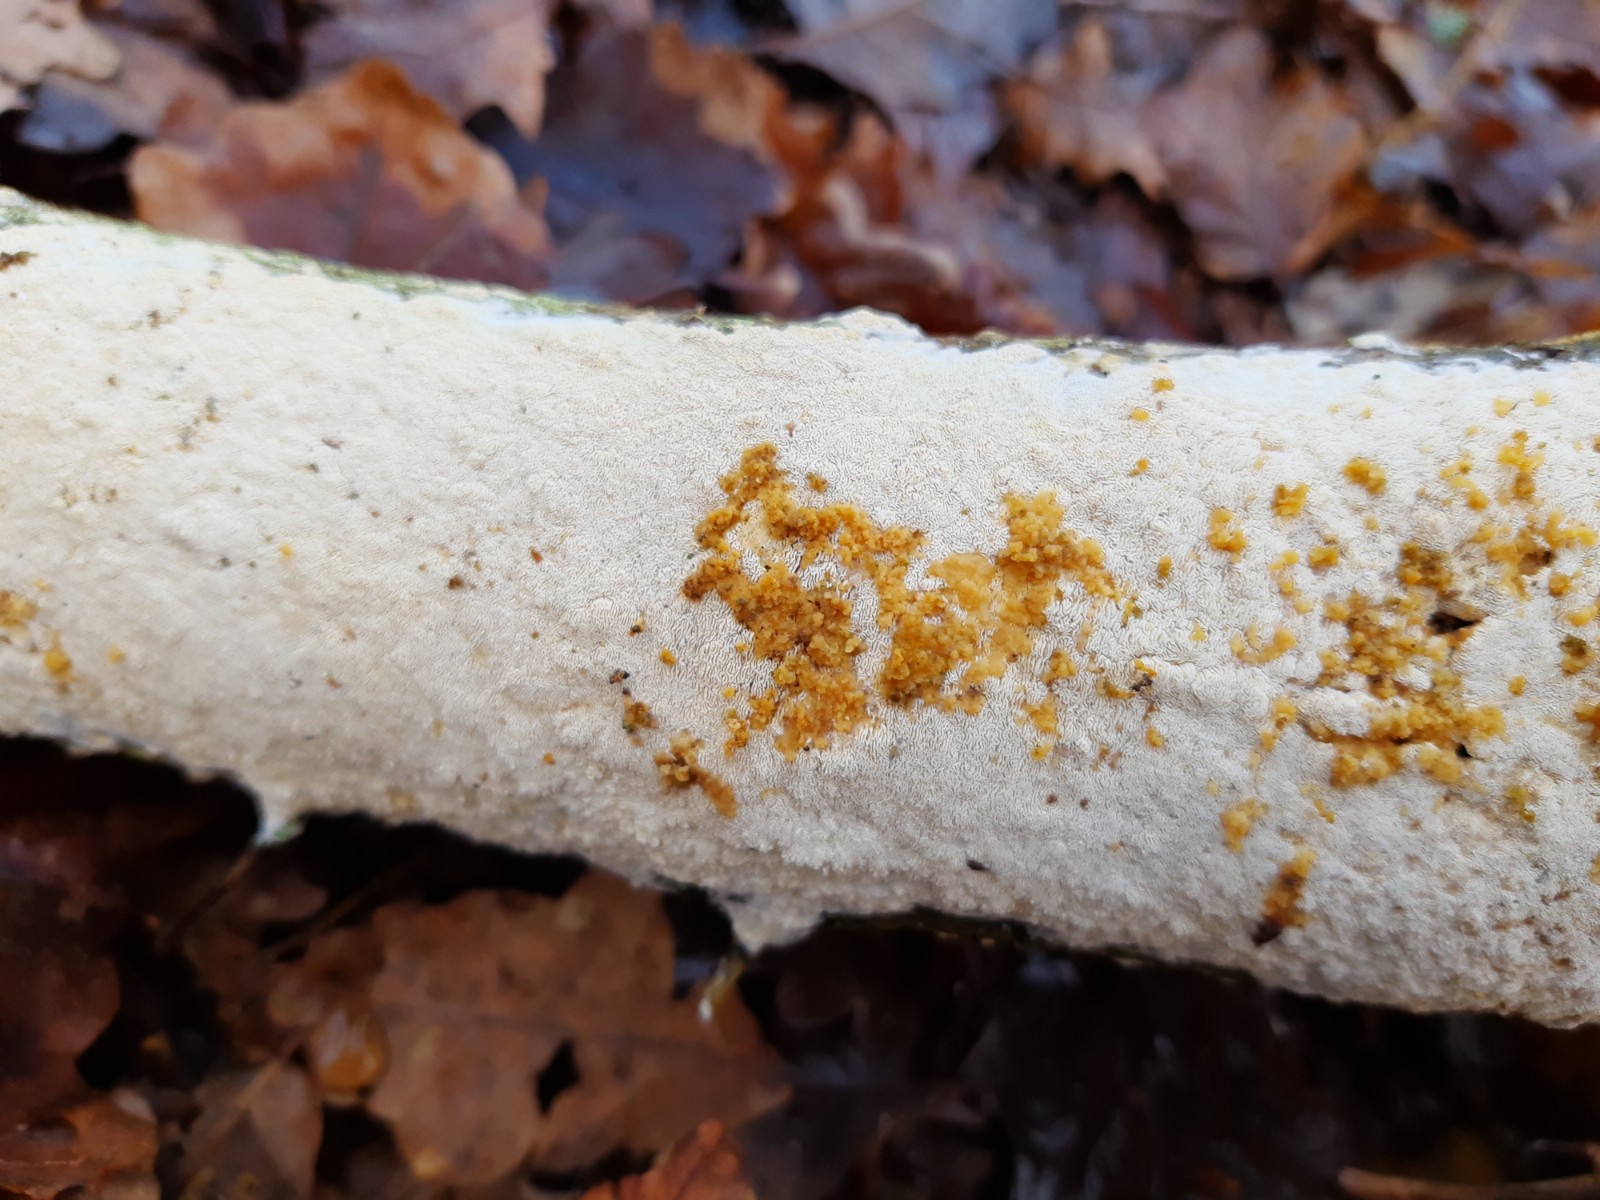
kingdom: Fungi
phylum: Basidiomycota
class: Agaricomycetes
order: Hymenochaetales
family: Schizoporaceae
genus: Xylodon
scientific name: Xylodon
